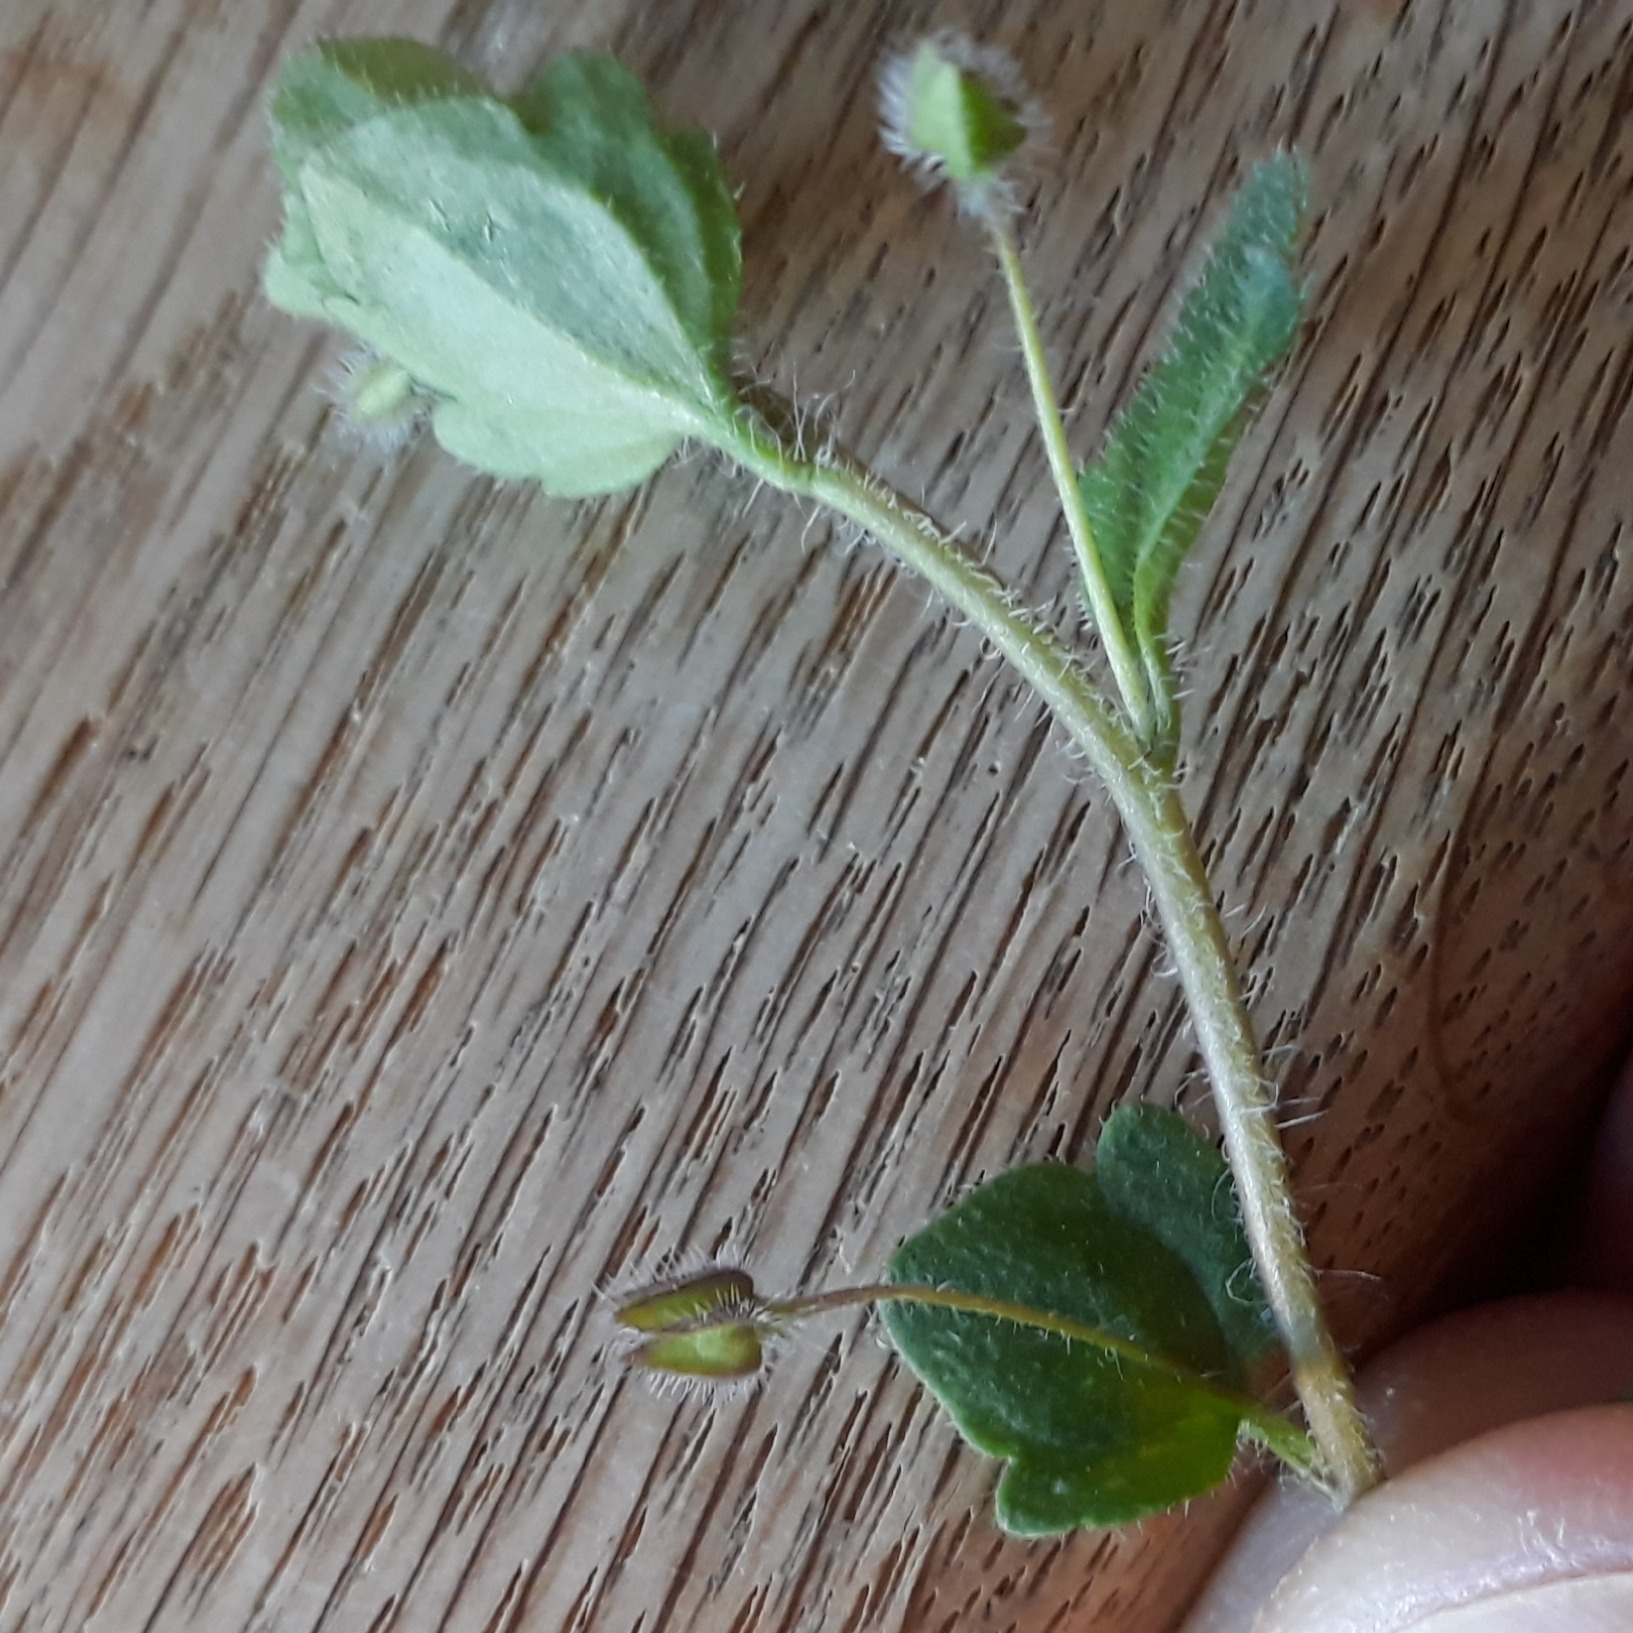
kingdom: Plantae
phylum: Tracheophyta
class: Magnoliopsida
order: Lamiales
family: Plantaginaceae
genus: Veronica
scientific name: Veronica sublobata
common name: Krat-ærenpris
